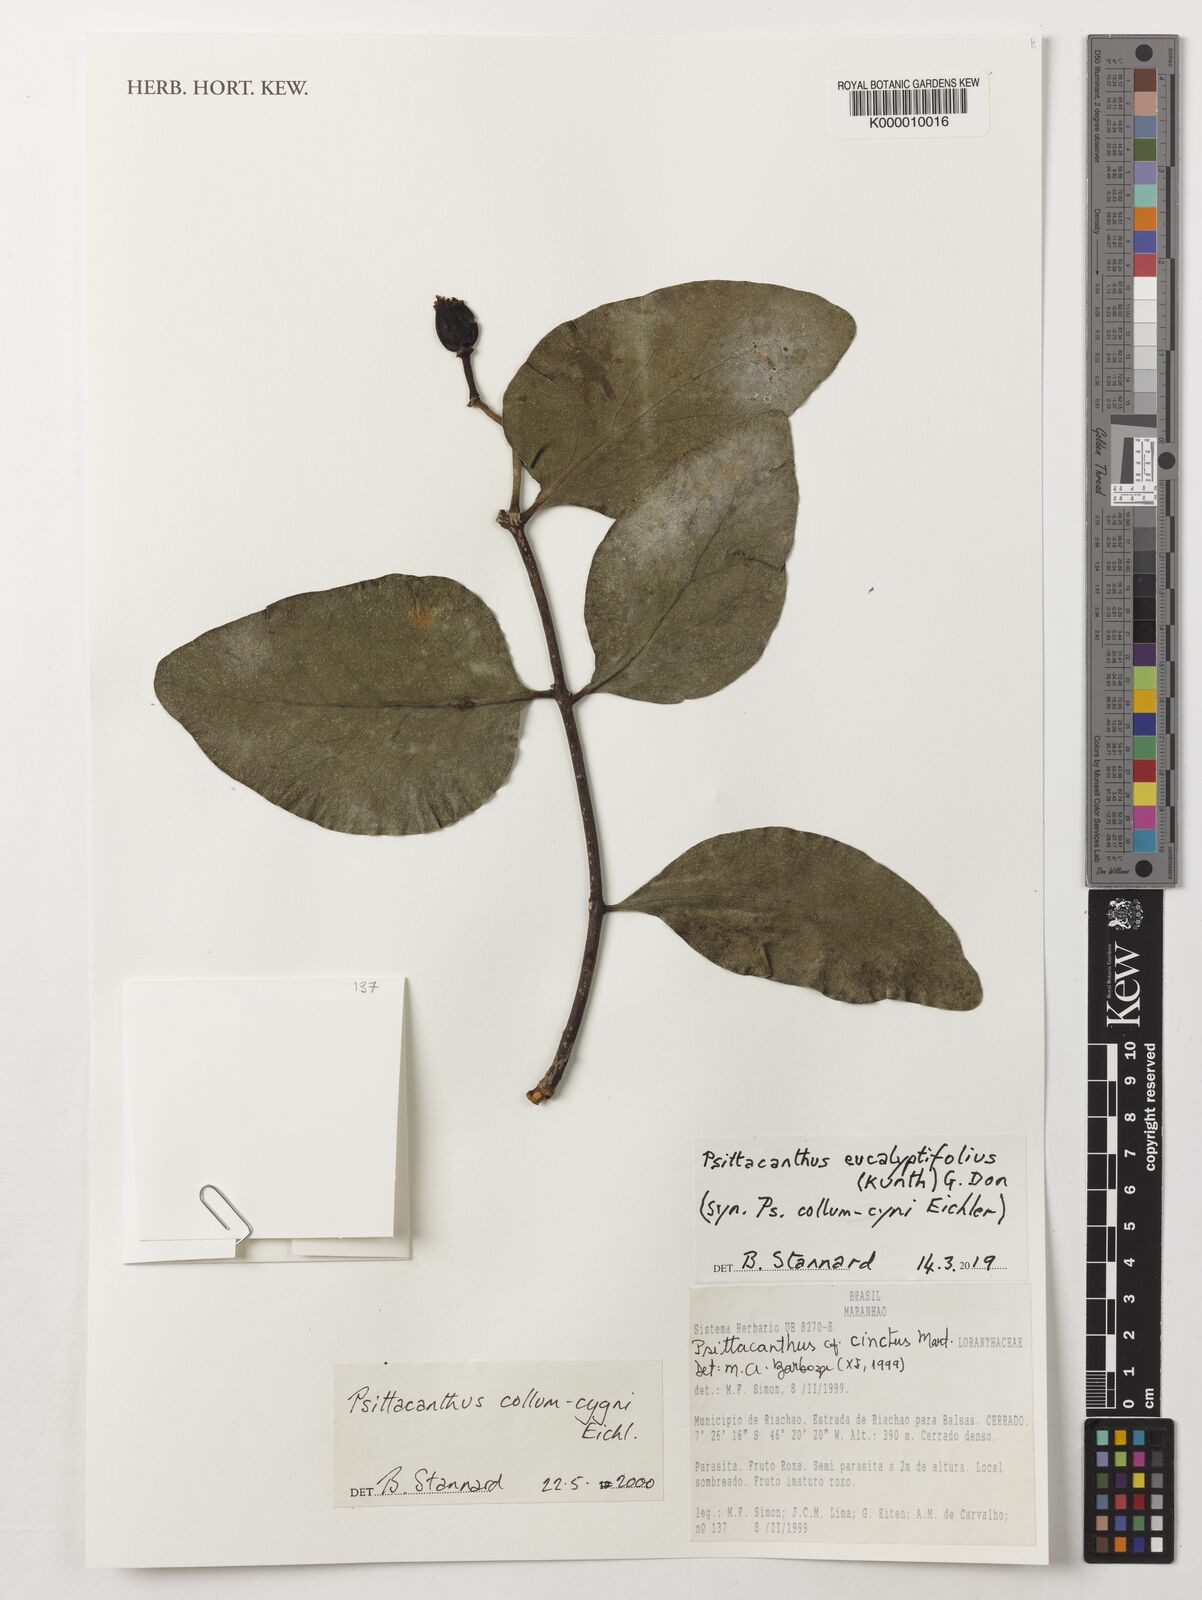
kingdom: Plantae
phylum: Tracheophyta
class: Magnoliopsida
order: Santalales
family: Loranthaceae
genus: Psittacanthus
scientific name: Psittacanthus eucalyptifolius
